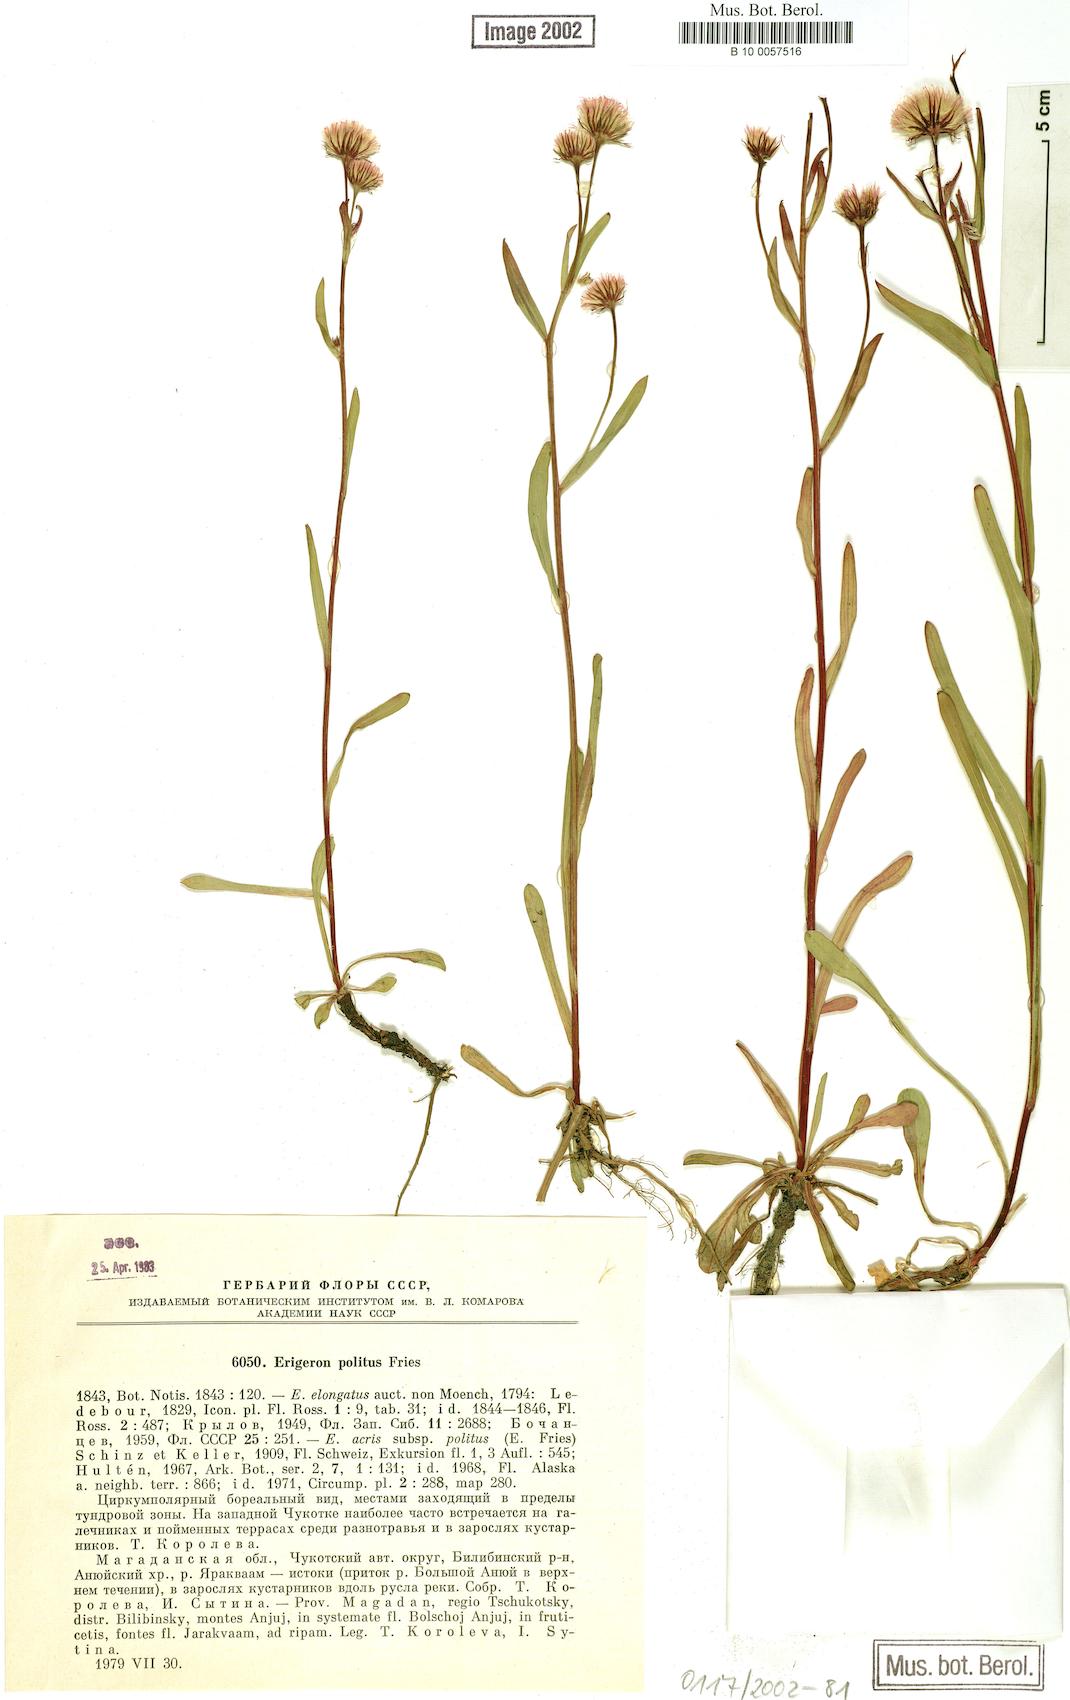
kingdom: Plantae
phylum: Tracheophyta
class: Magnoliopsida
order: Asterales
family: Asteraceae
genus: Erigeron
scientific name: Erigeron politus
